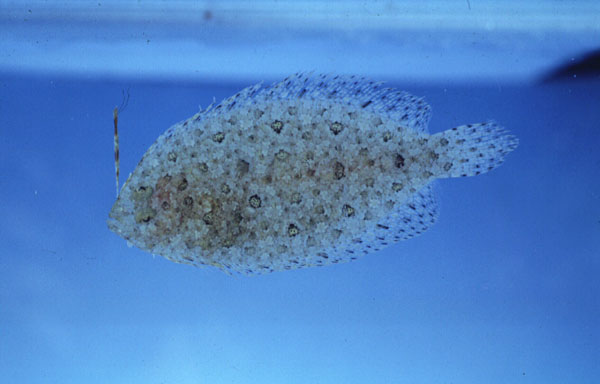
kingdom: Animalia
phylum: Chordata
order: Pleuronectiformes
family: Bothidae
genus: Asterorhombus
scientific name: Asterorhombus filifer
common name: Longlure flounder
